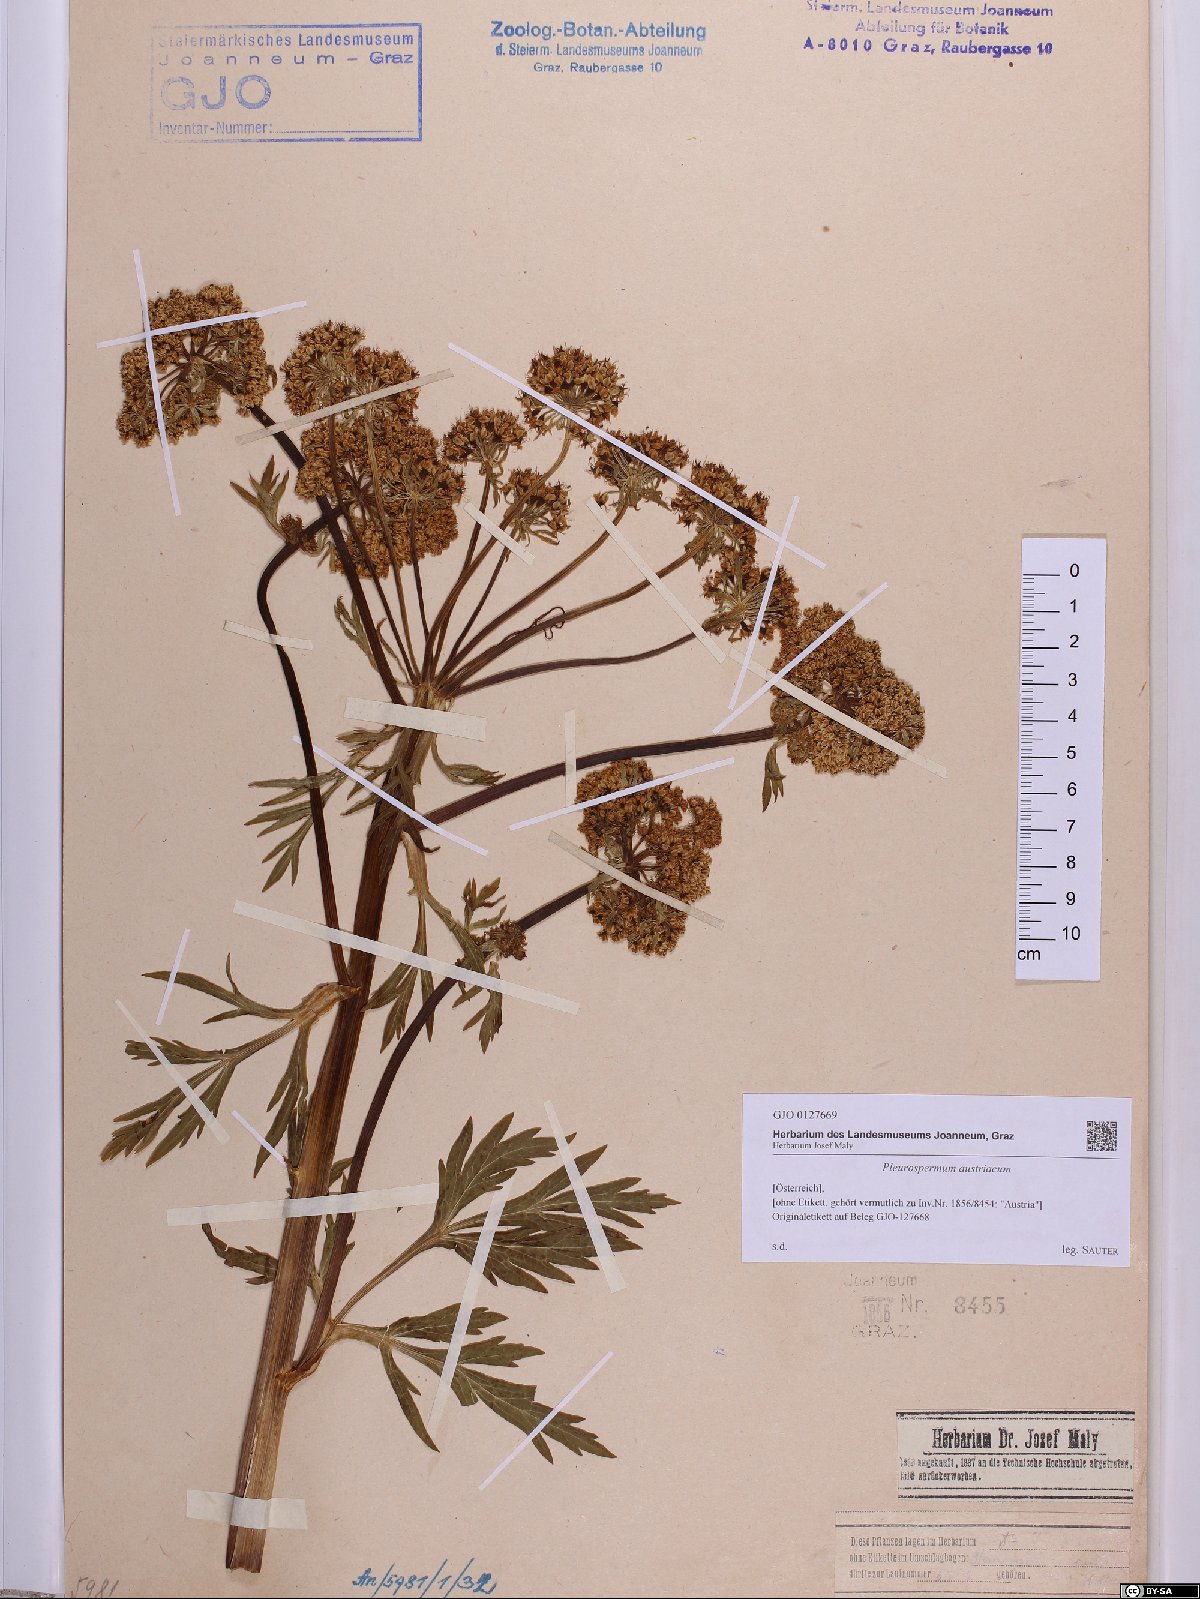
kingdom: Plantae
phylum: Tracheophyta
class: Magnoliopsida
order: Apiales
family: Apiaceae
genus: Pleurospermum
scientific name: Pleurospermum austriacum
